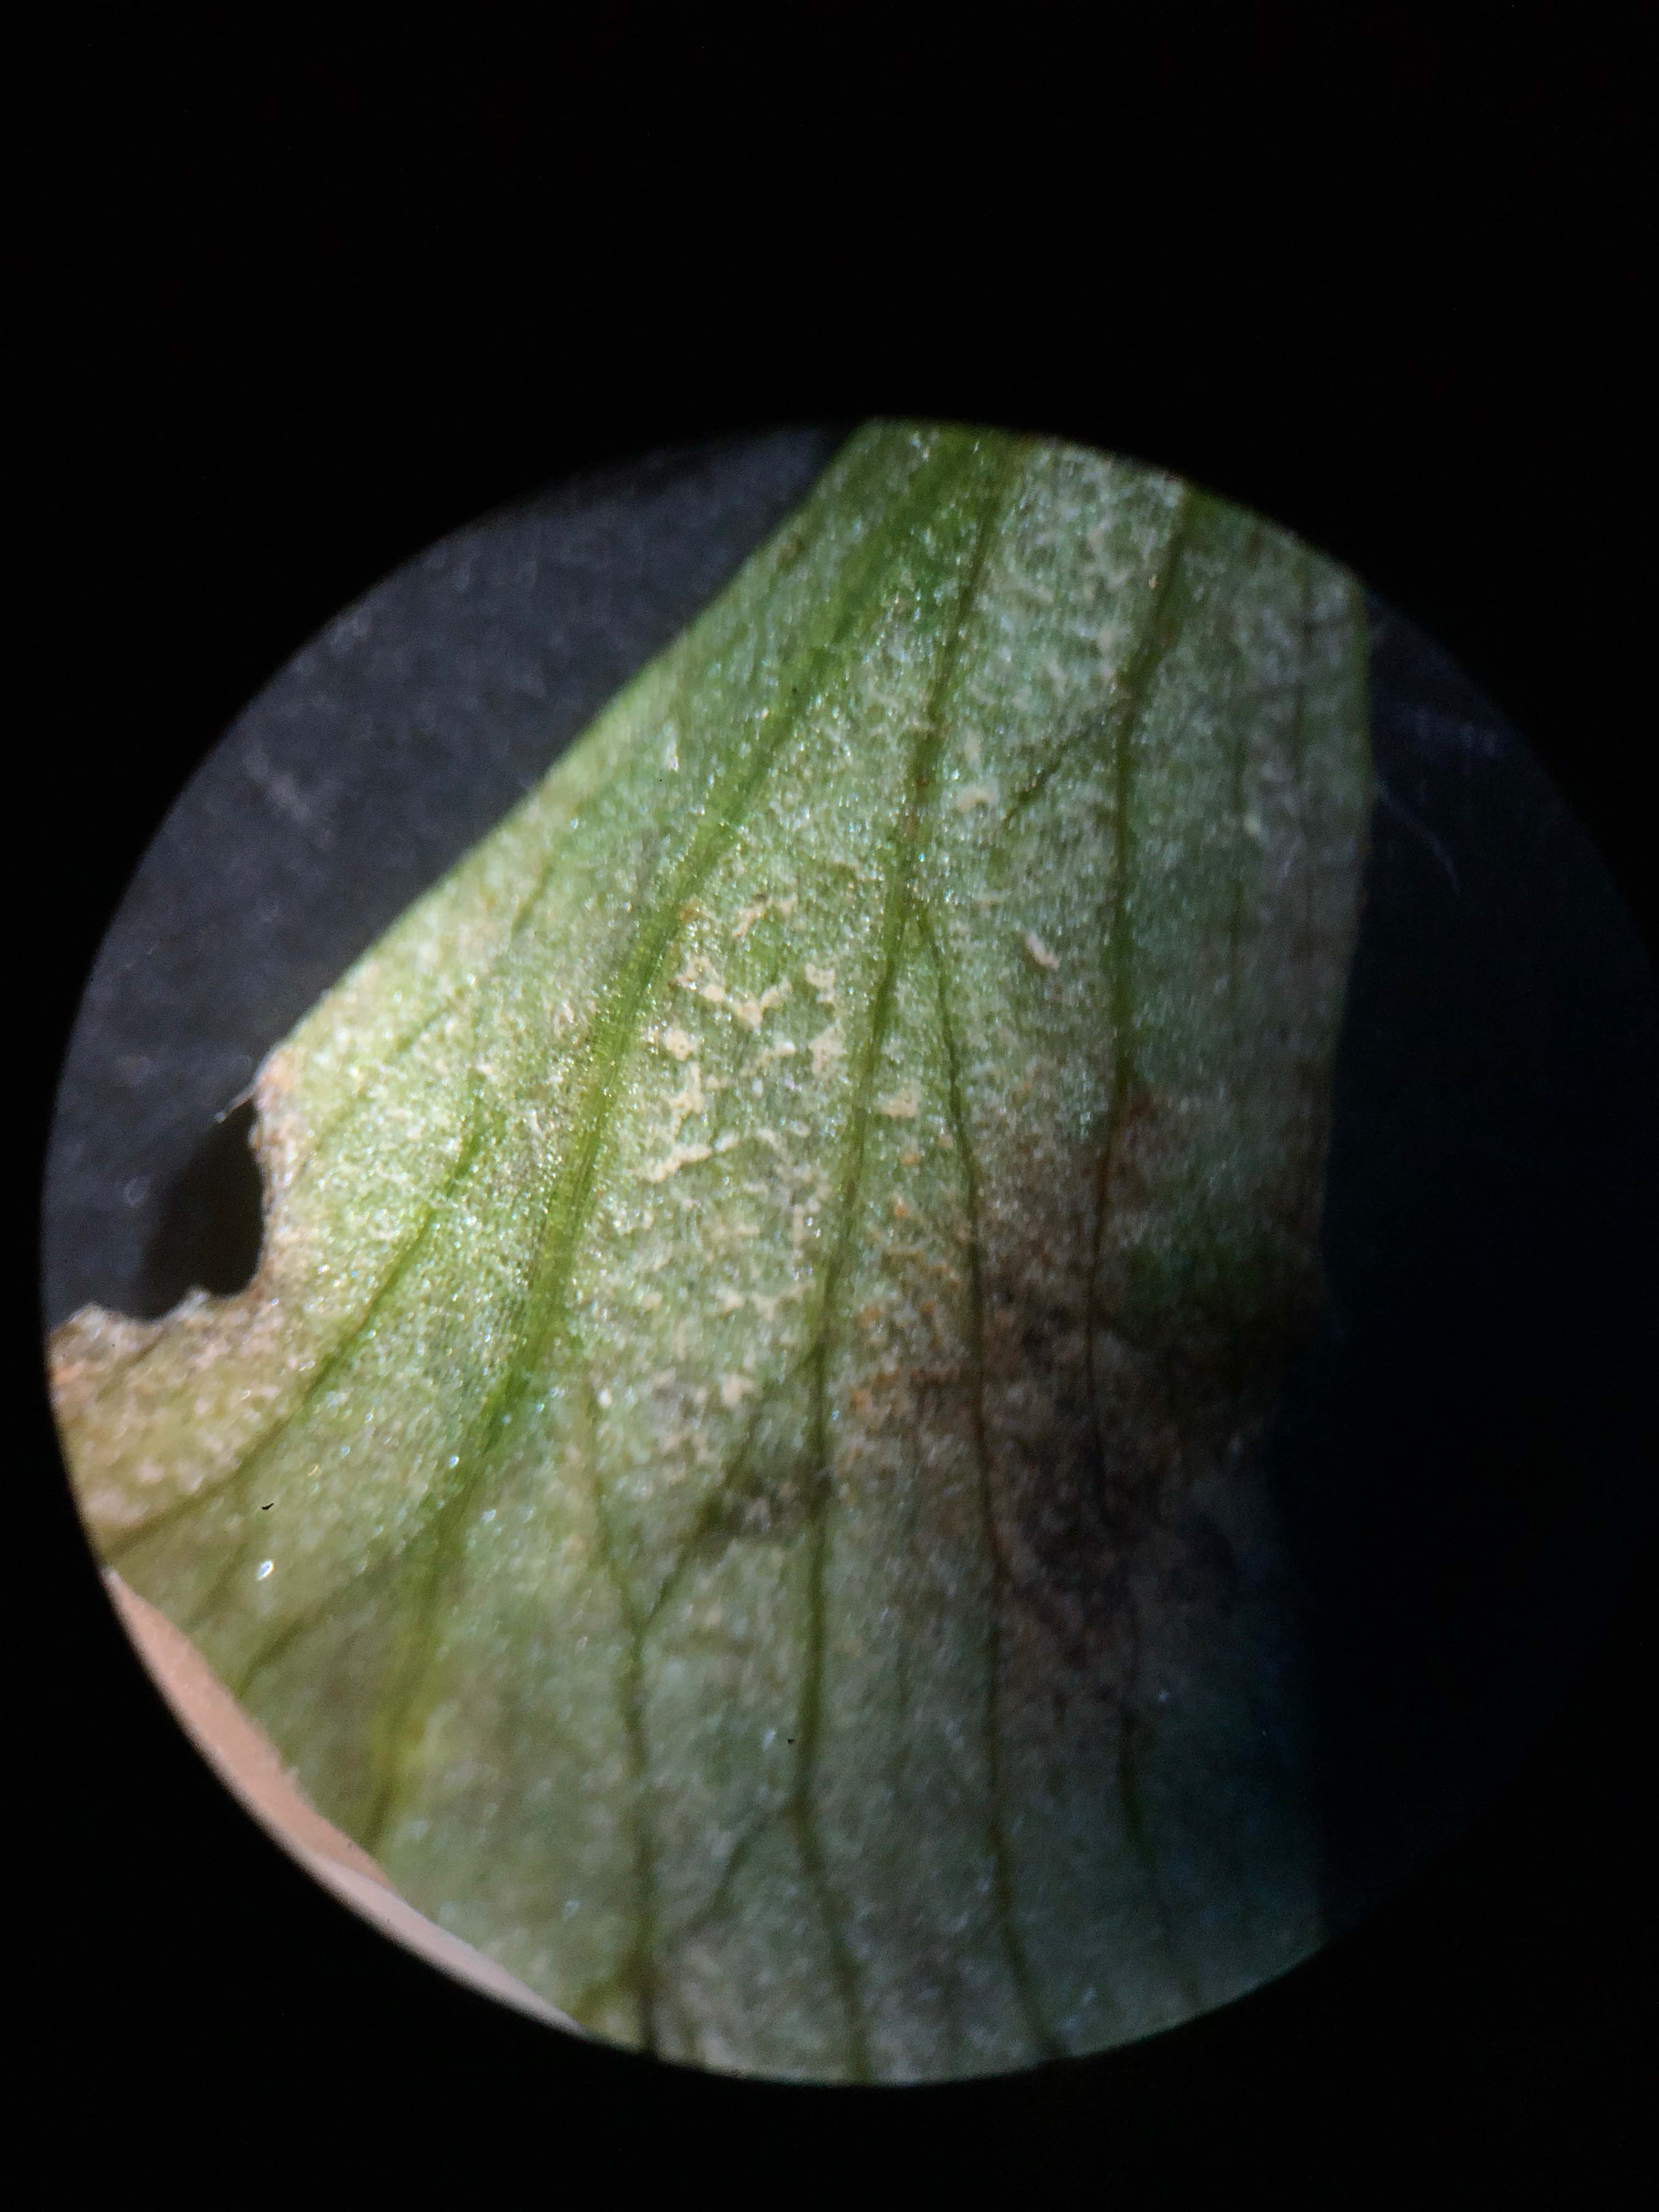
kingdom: Chromista
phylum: Oomycota
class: Peronosporea
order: Peronosporales
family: Peronosporaceae
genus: Plasmoverna
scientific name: Plasmoverna pygmaea
